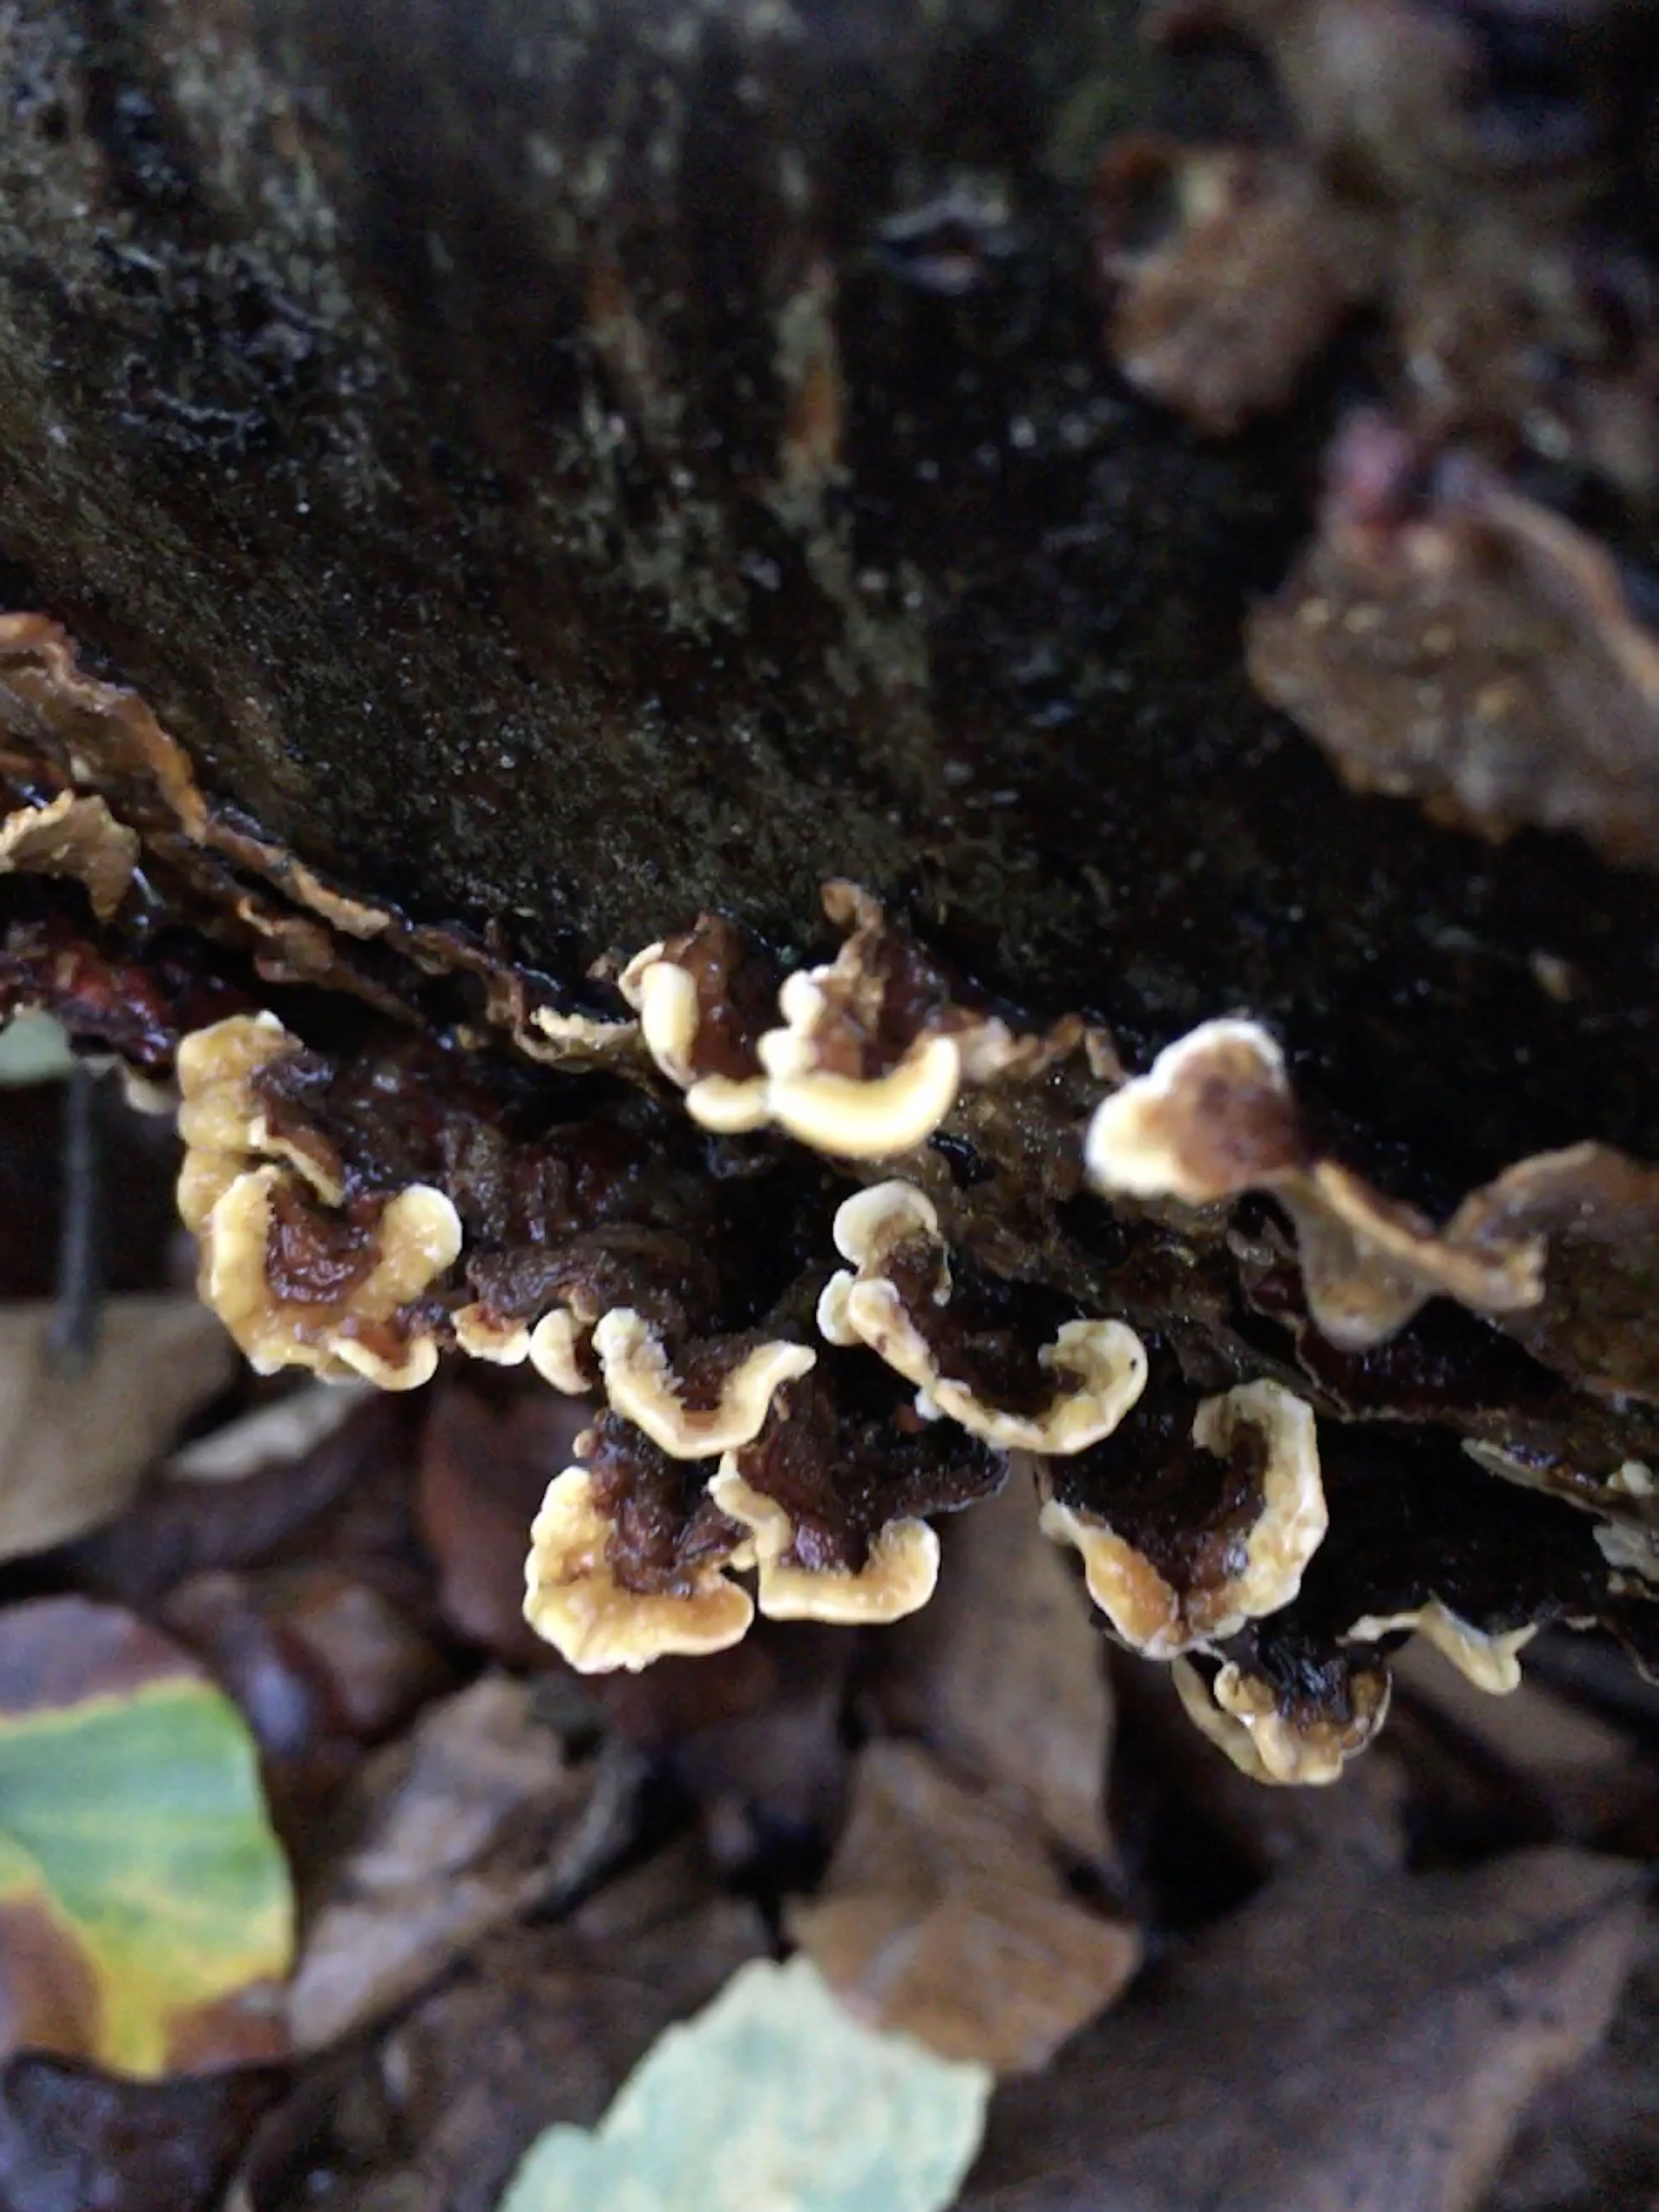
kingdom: Fungi
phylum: Basidiomycota
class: Agaricomycetes
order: Russulales
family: Stereaceae
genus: Stereum
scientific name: Stereum hirsutum
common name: håret lædersvamp
